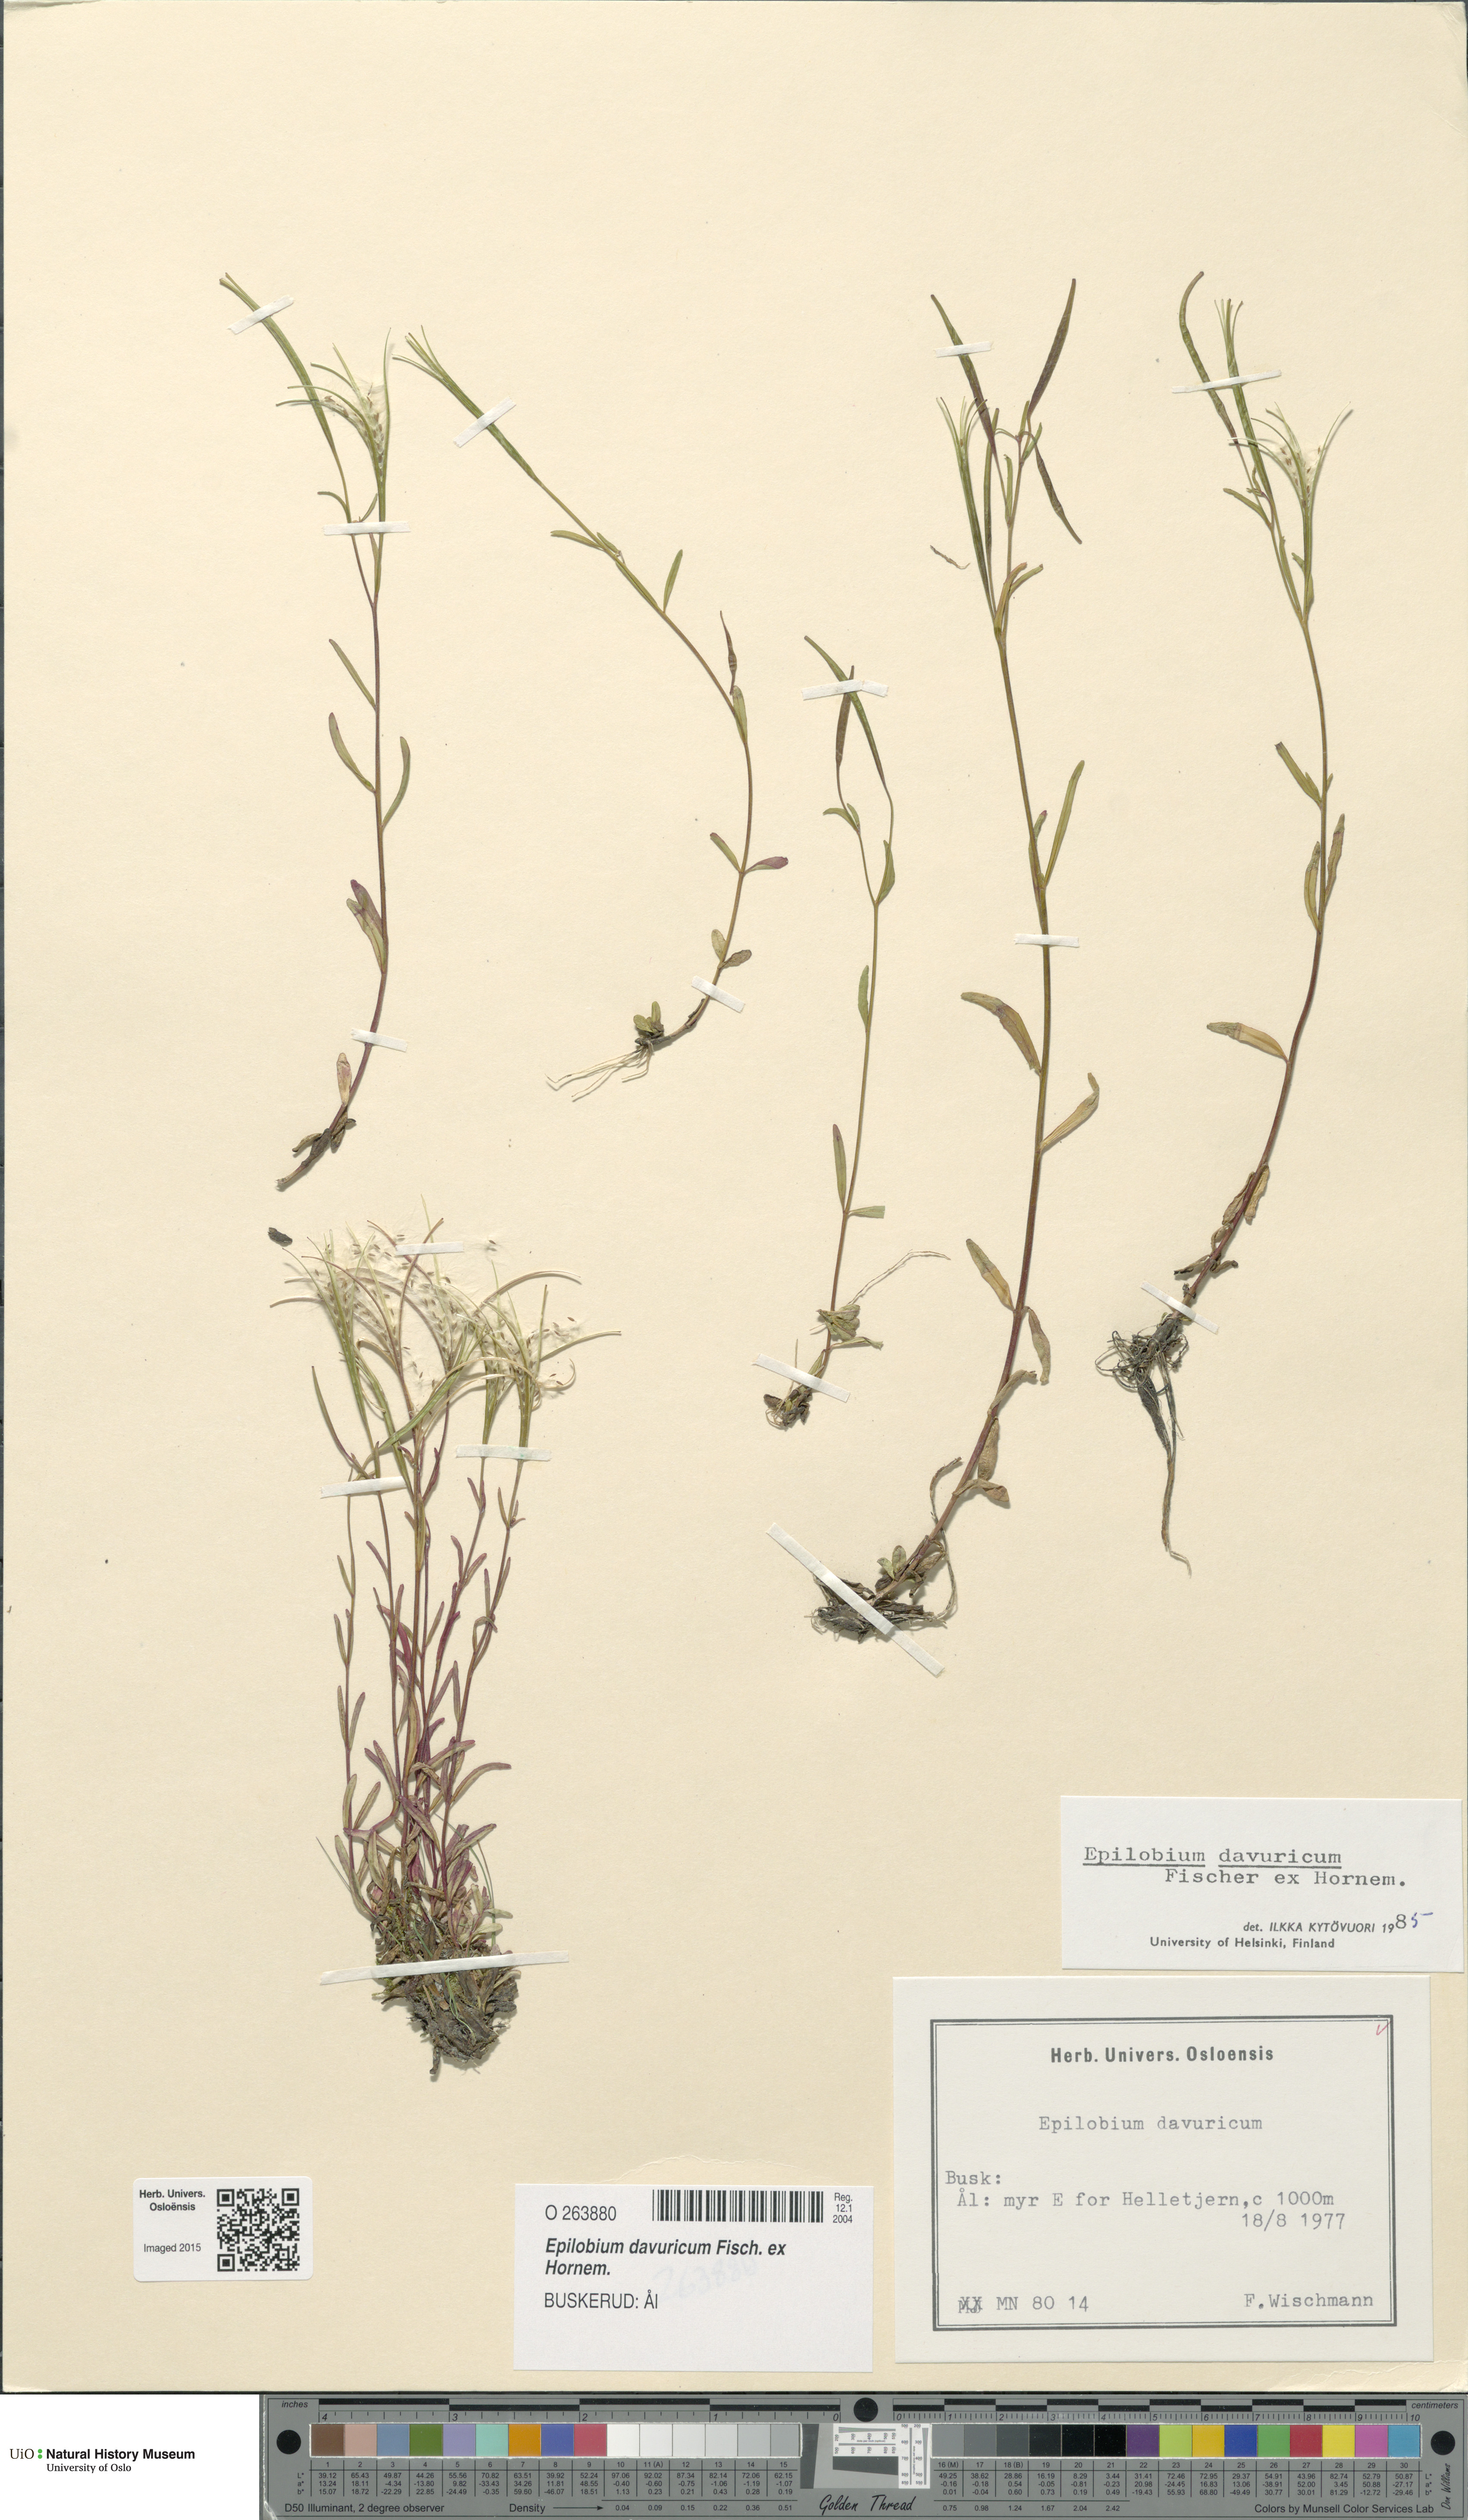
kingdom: Plantae
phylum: Tracheophyta
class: Magnoliopsida
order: Myrtales
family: Onagraceae
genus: Epilobium
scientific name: Epilobium davuricum
